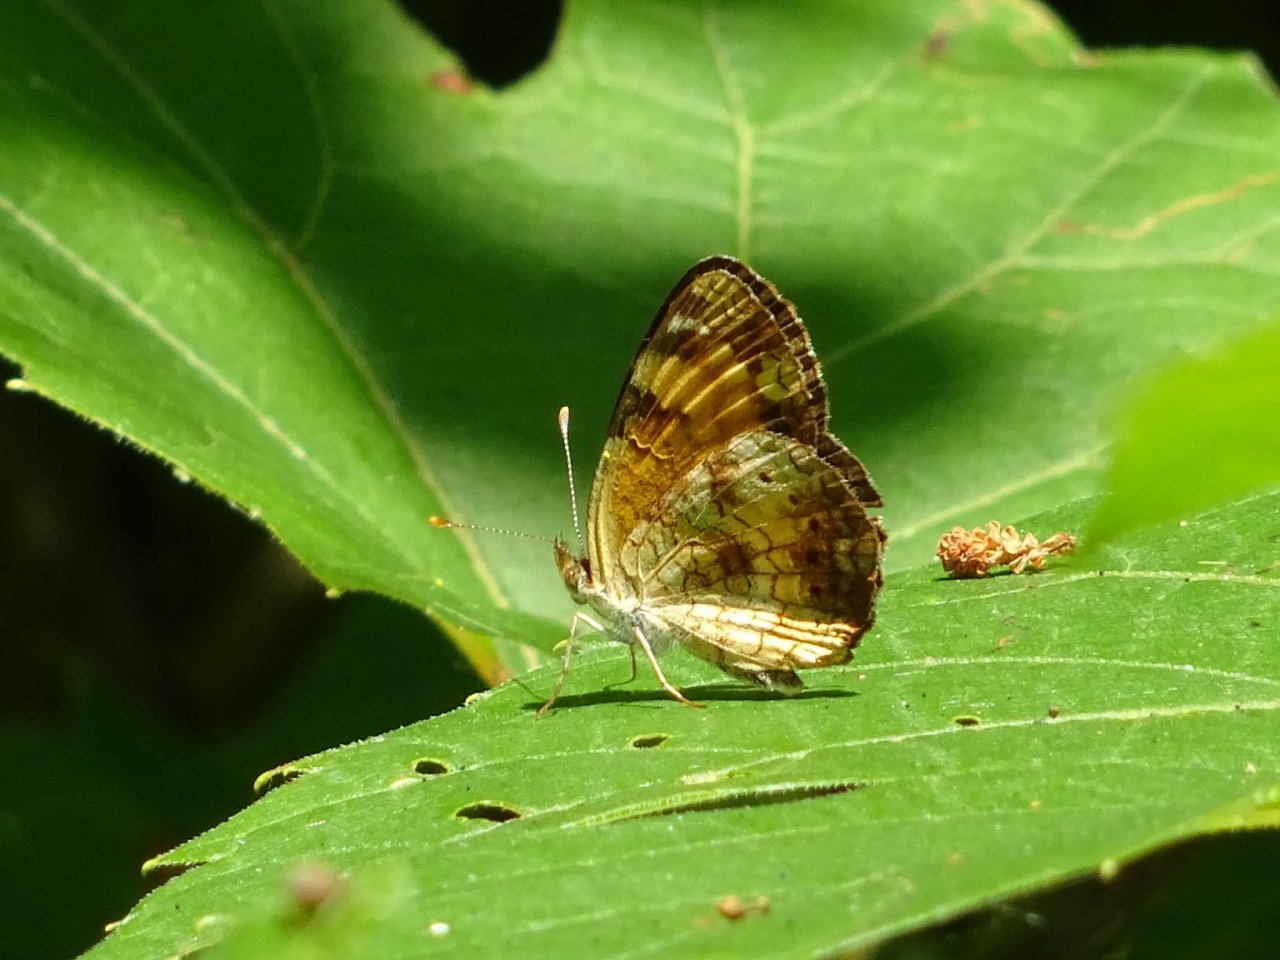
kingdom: Animalia
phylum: Arthropoda
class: Insecta
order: Lepidoptera
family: Nymphalidae
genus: Phyciodes
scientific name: Phyciodes tharos
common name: Northern Crescent
